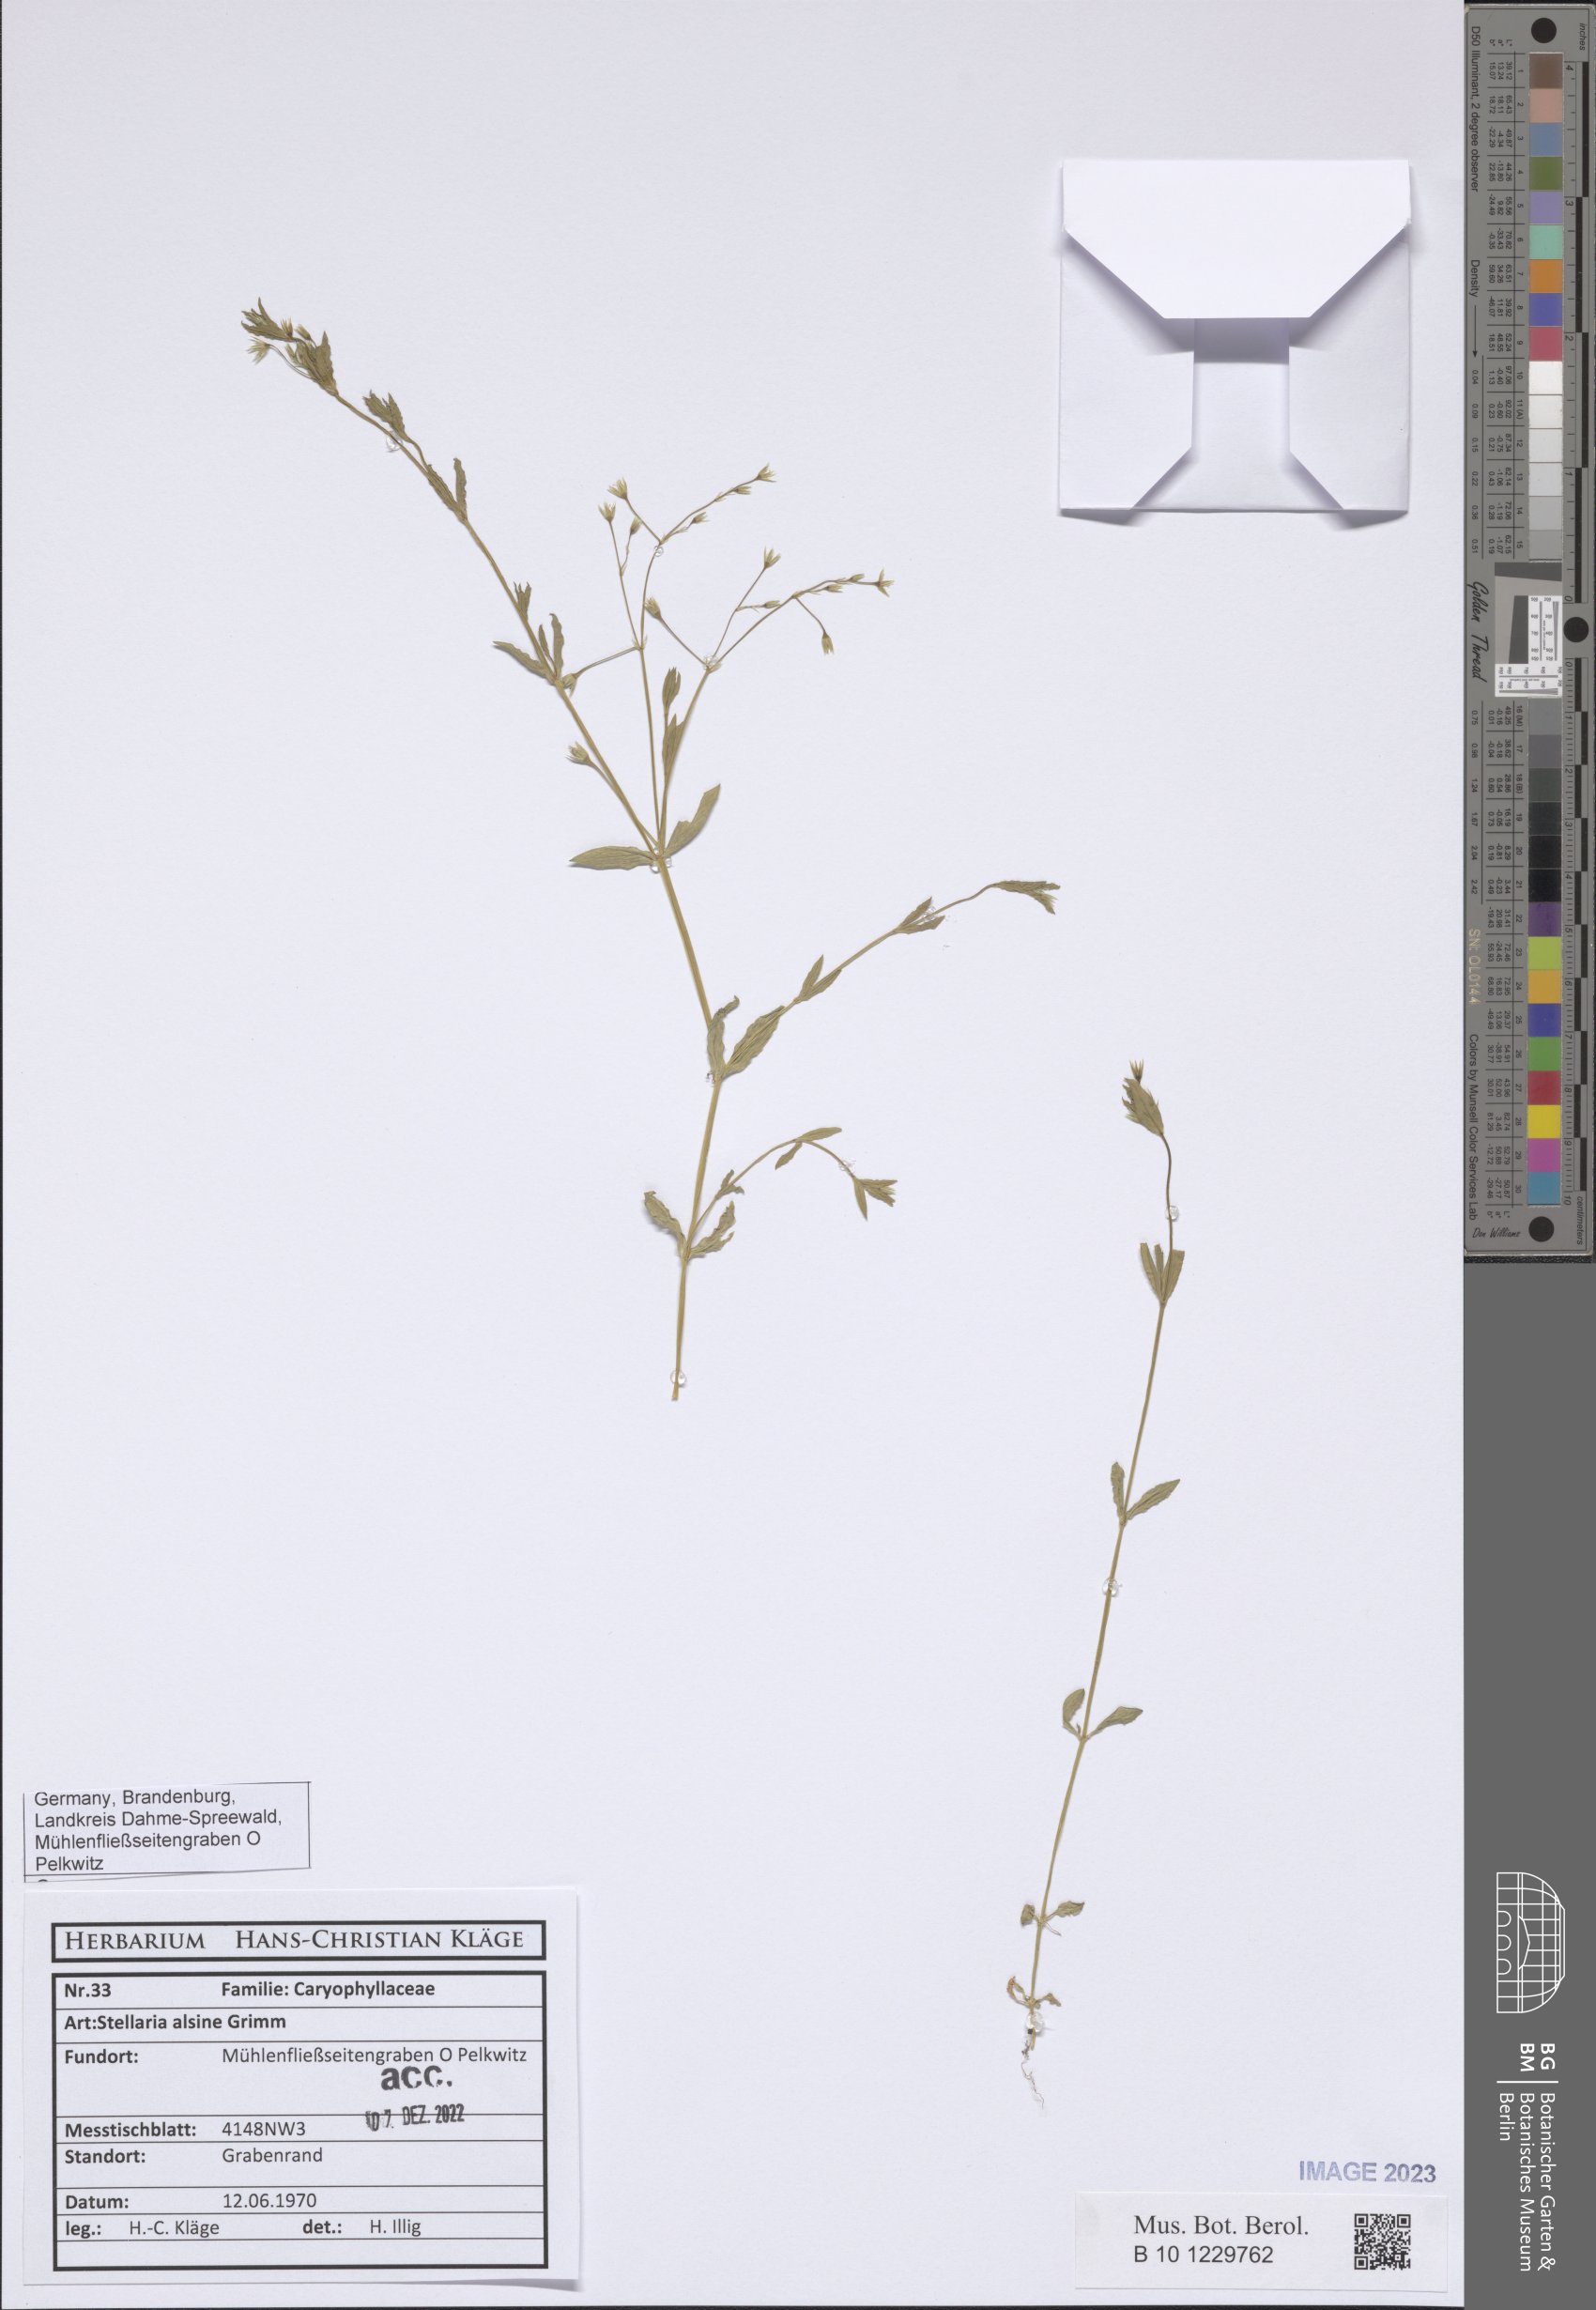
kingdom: Plantae
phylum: Tracheophyta
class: Magnoliopsida
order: Caryophyllales
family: Caryophyllaceae
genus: Stellaria
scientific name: Stellaria alsine
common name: Bog stitchwort
